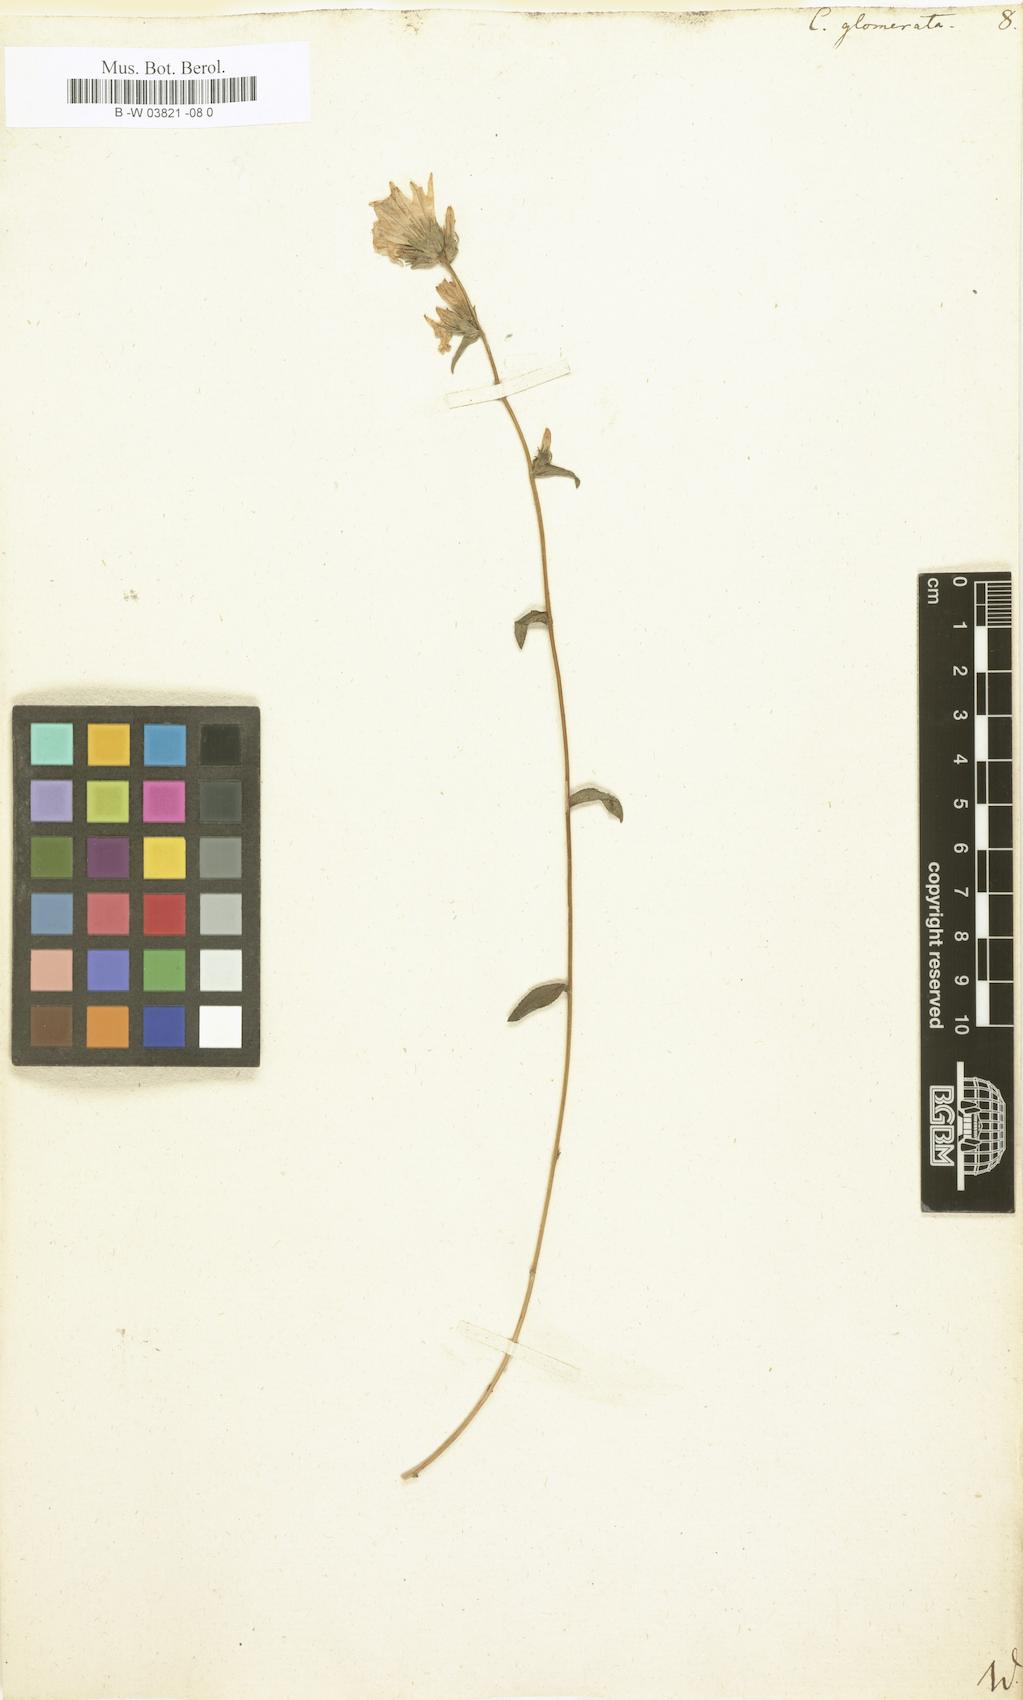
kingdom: Plantae
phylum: Tracheophyta
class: Magnoliopsida
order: Asterales
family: Campanulaceae
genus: Campanula
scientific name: Campanula glomerata
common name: Clustered bellflower
